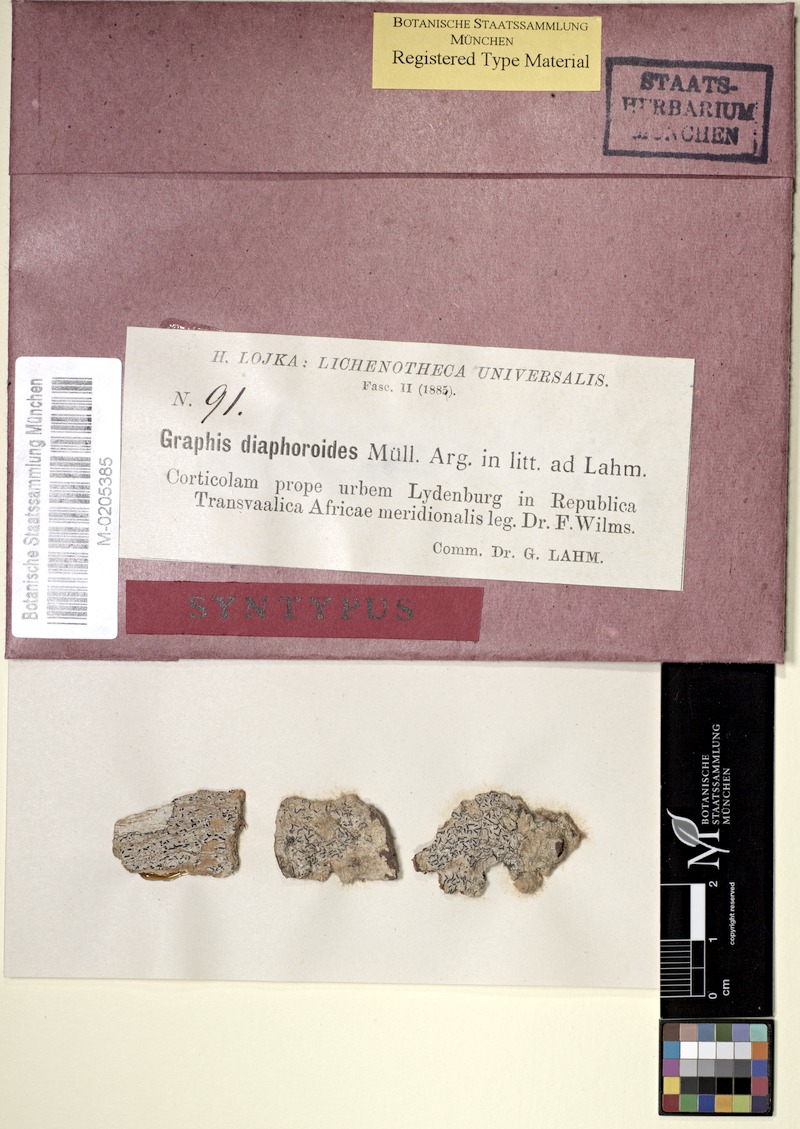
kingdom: Fungi
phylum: Ascomycota
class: Lecanoromycetes
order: Ostropales
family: Graphidaceae
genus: Graphis
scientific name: Graphis diaphoroides
